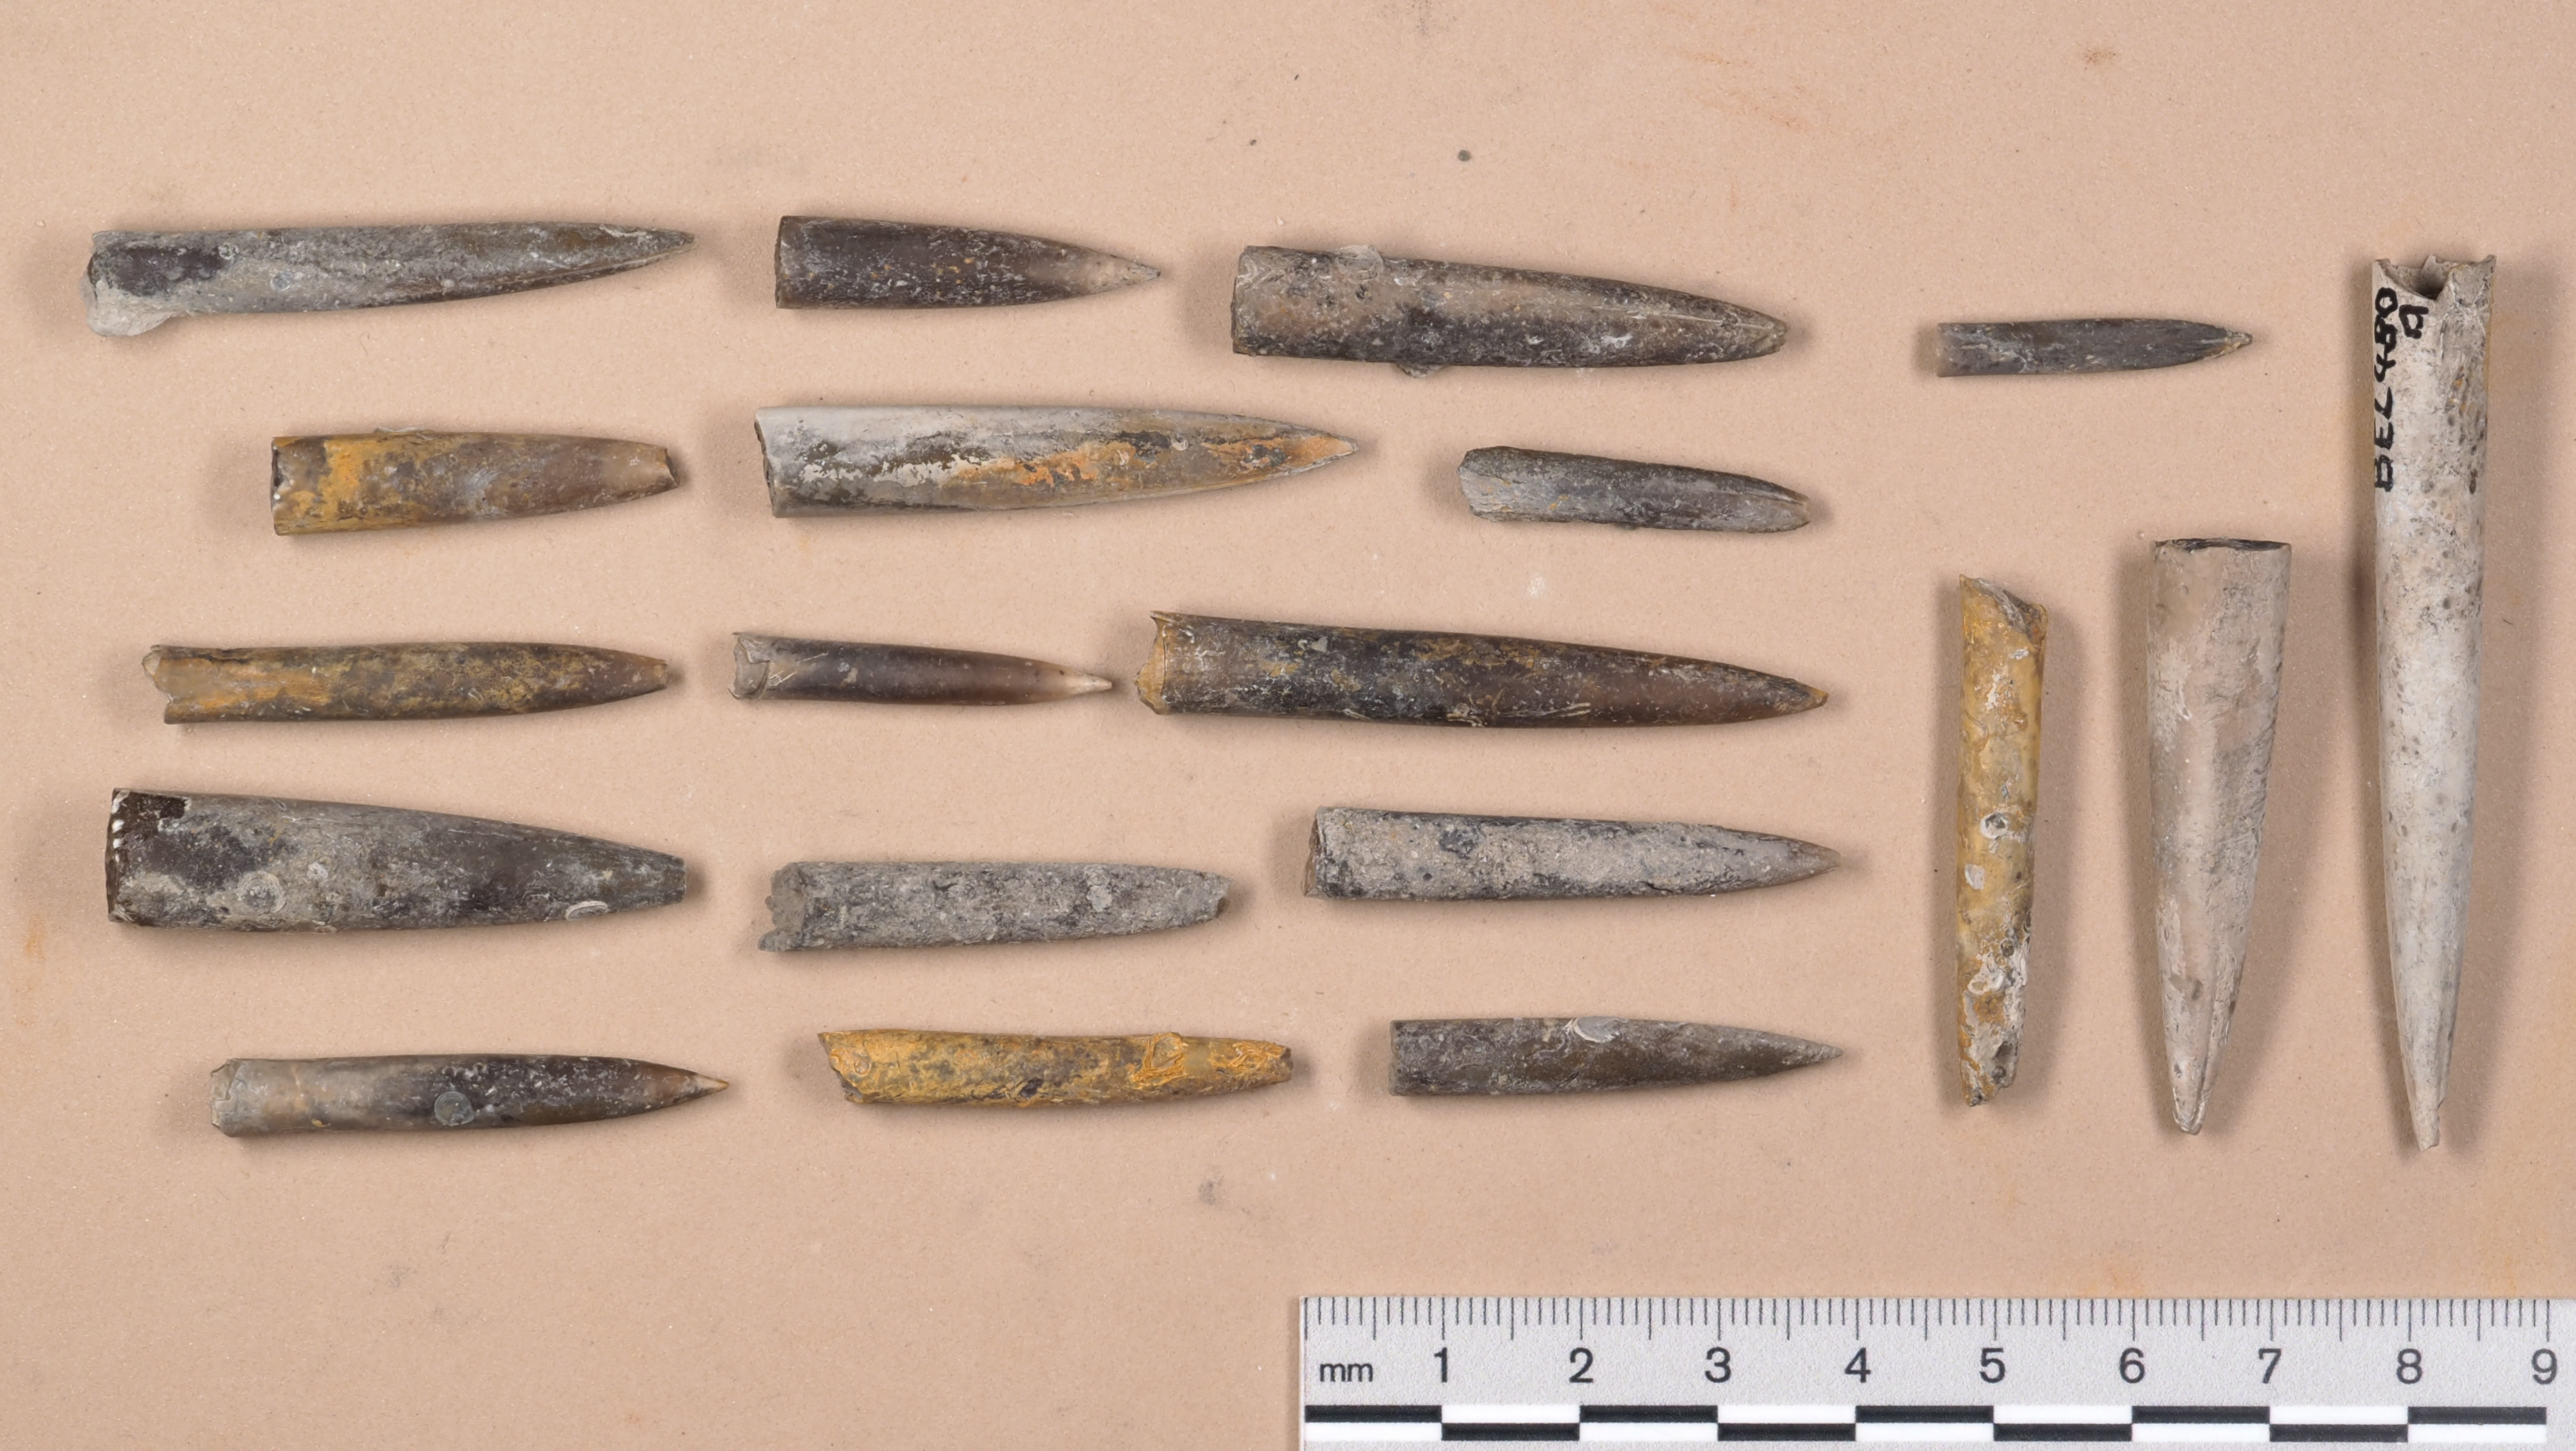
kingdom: Animalia
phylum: Mollusca
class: Cephalopoda
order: Belemnitida
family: Megateuthididae
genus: Acrocoelites
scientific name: Acrocoelites
